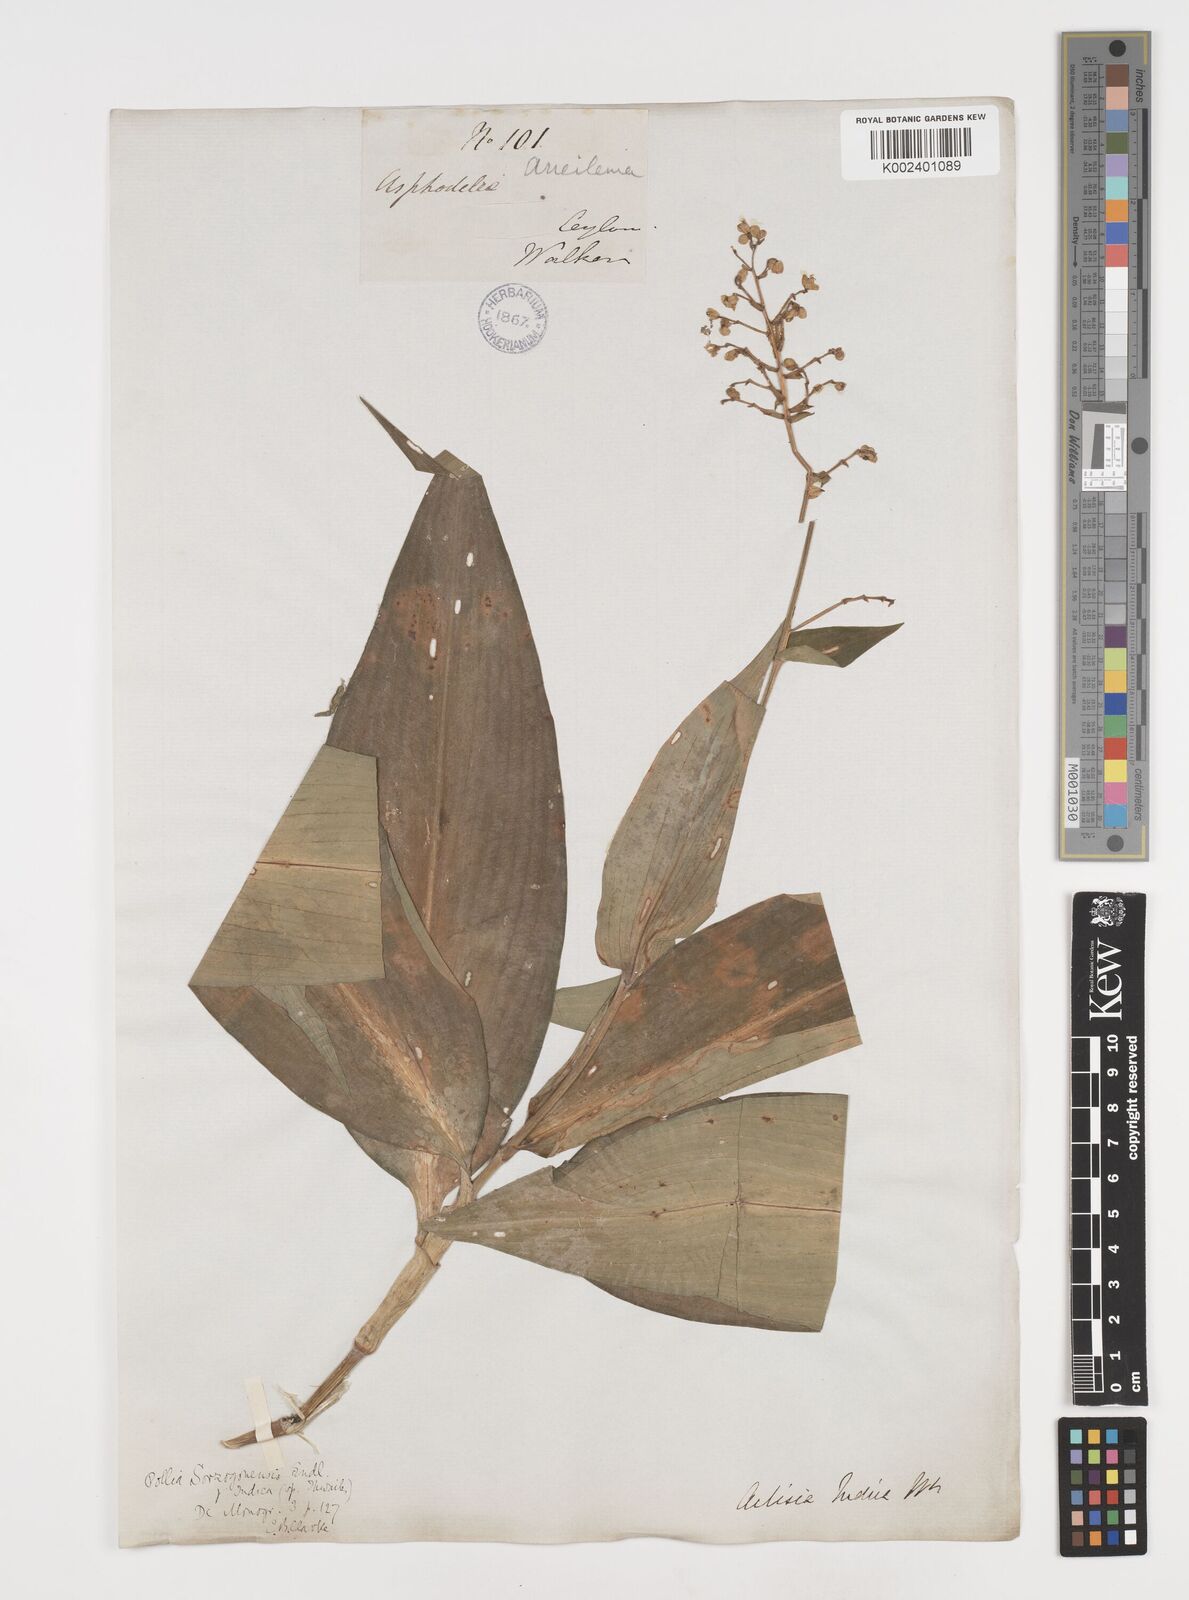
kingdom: Plantae
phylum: Tracheophyta
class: Liliopsida
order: Commelinales
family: Commelinaceae
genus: Pollia
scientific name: Pollia secundiflora
